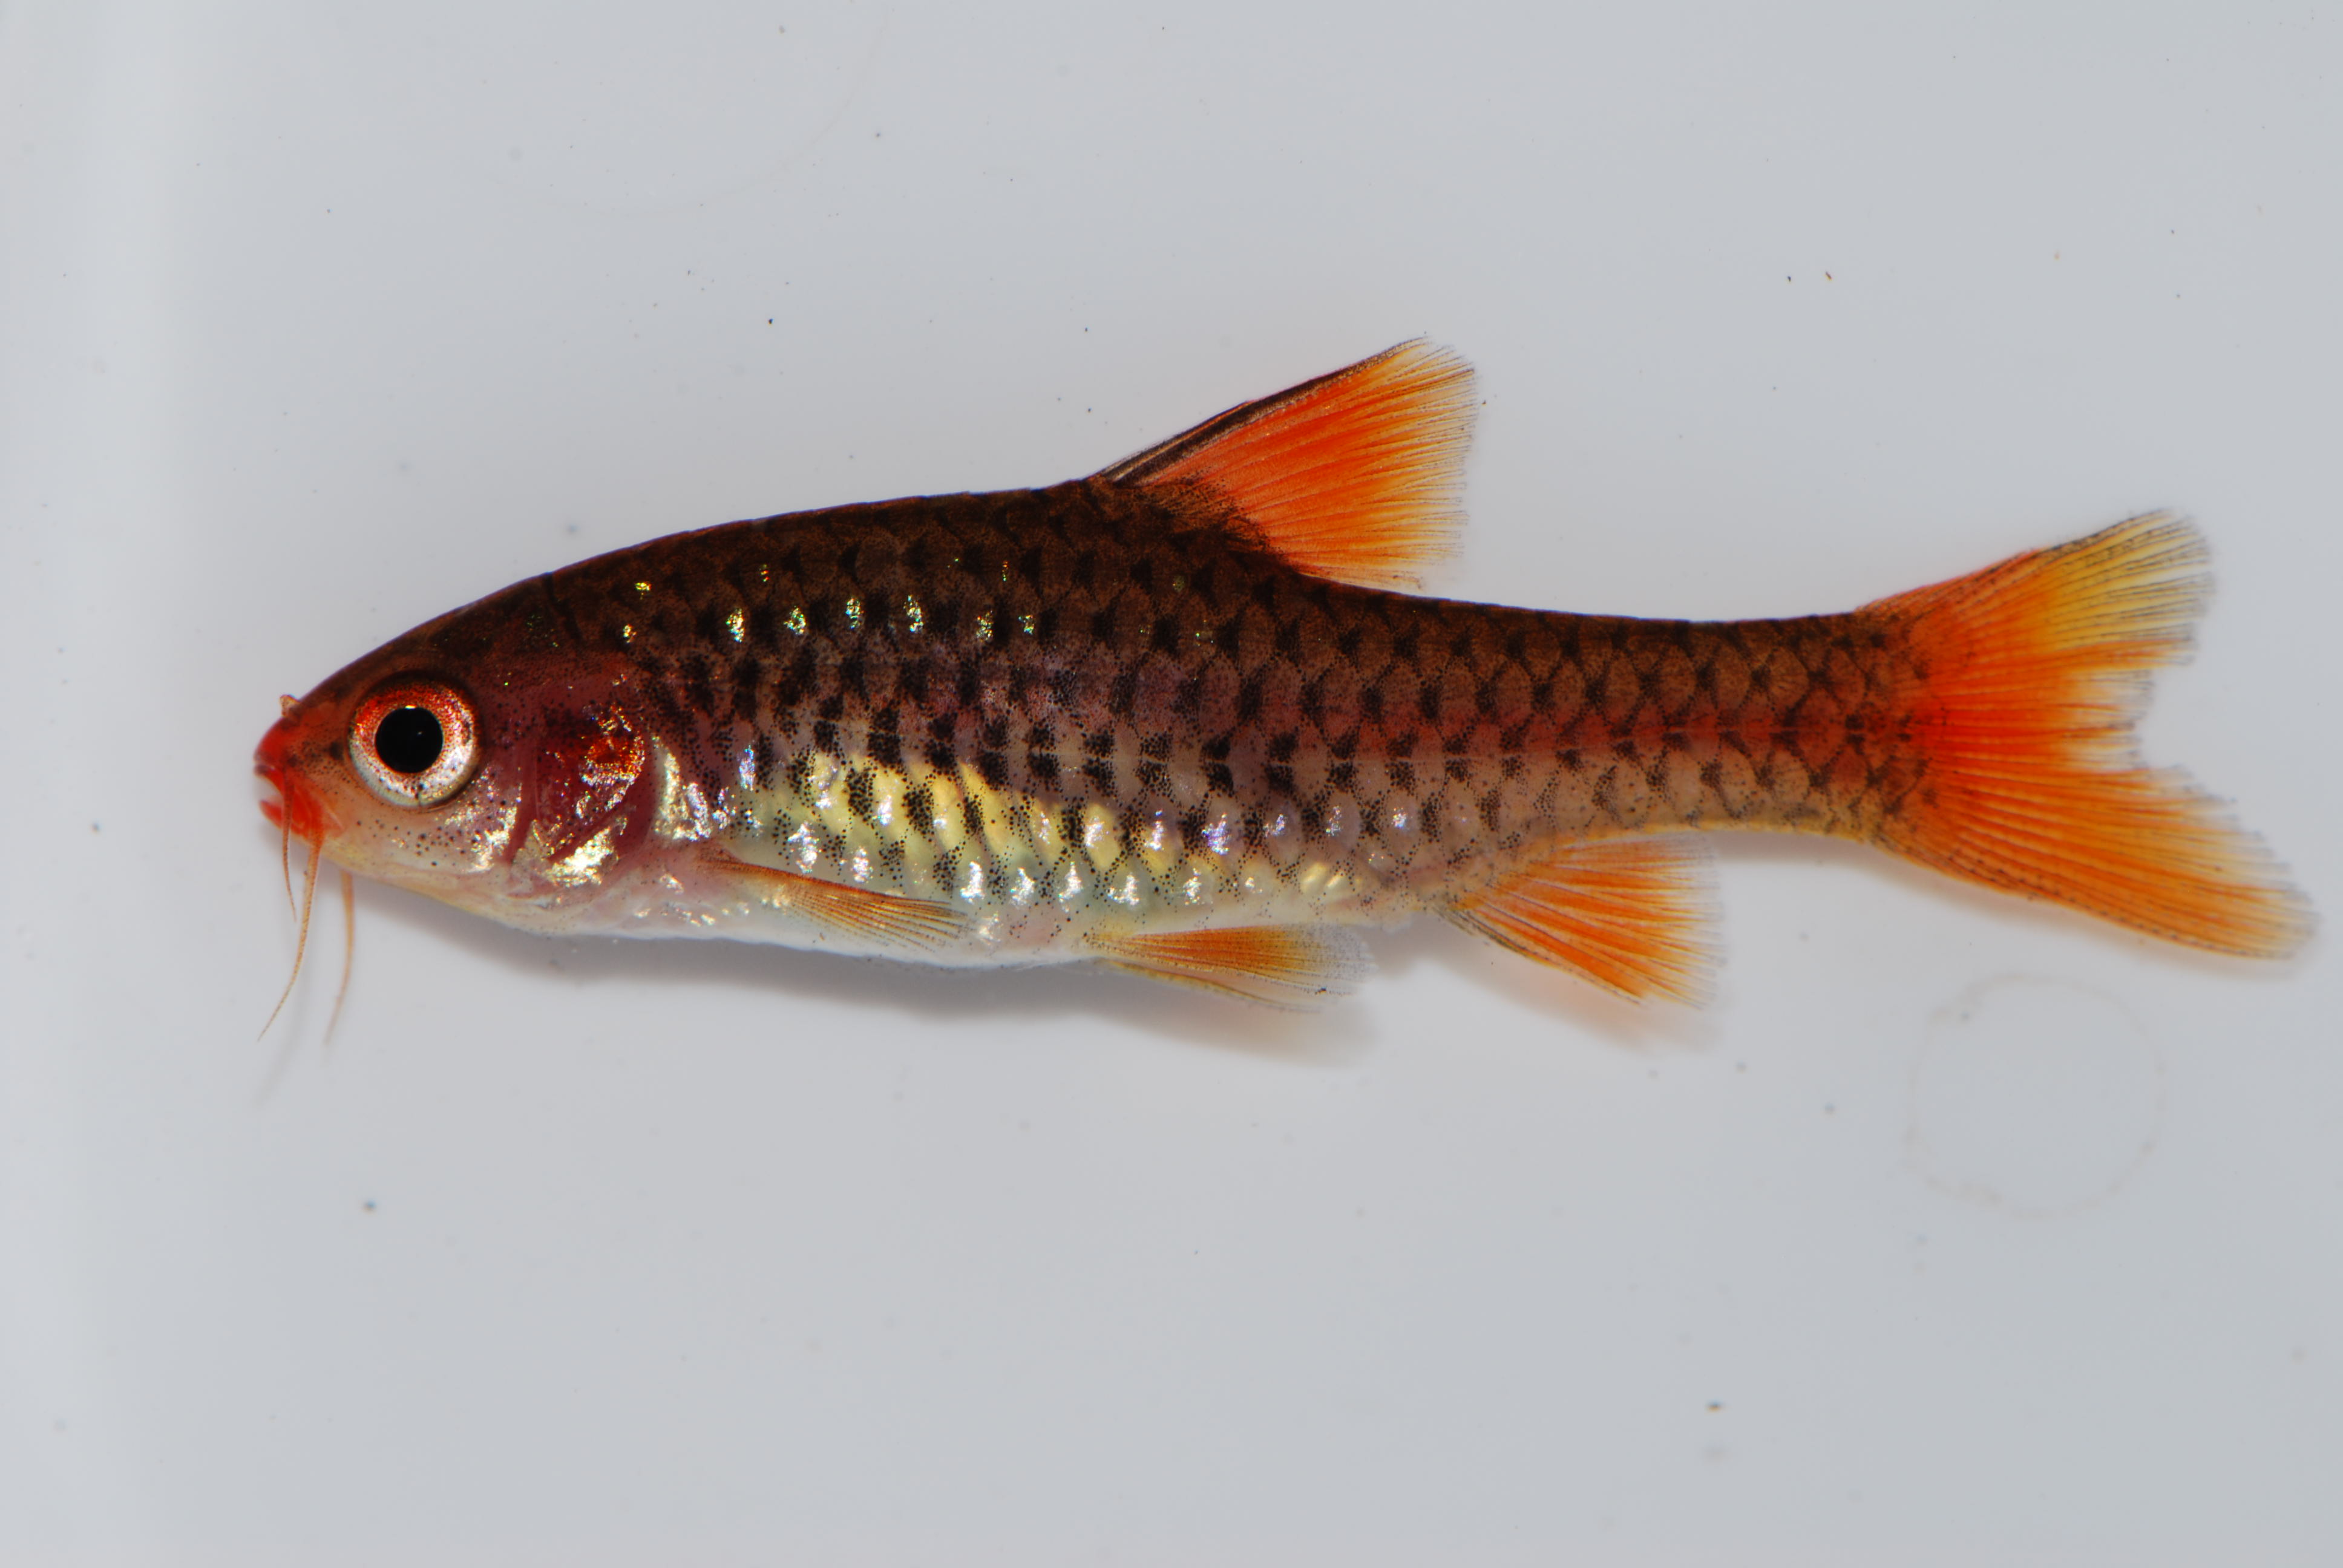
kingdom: Animalia
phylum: Chordata
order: Cypriniformes
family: Cyprinidae
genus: Enteromius
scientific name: Enteromius chicapaensis
